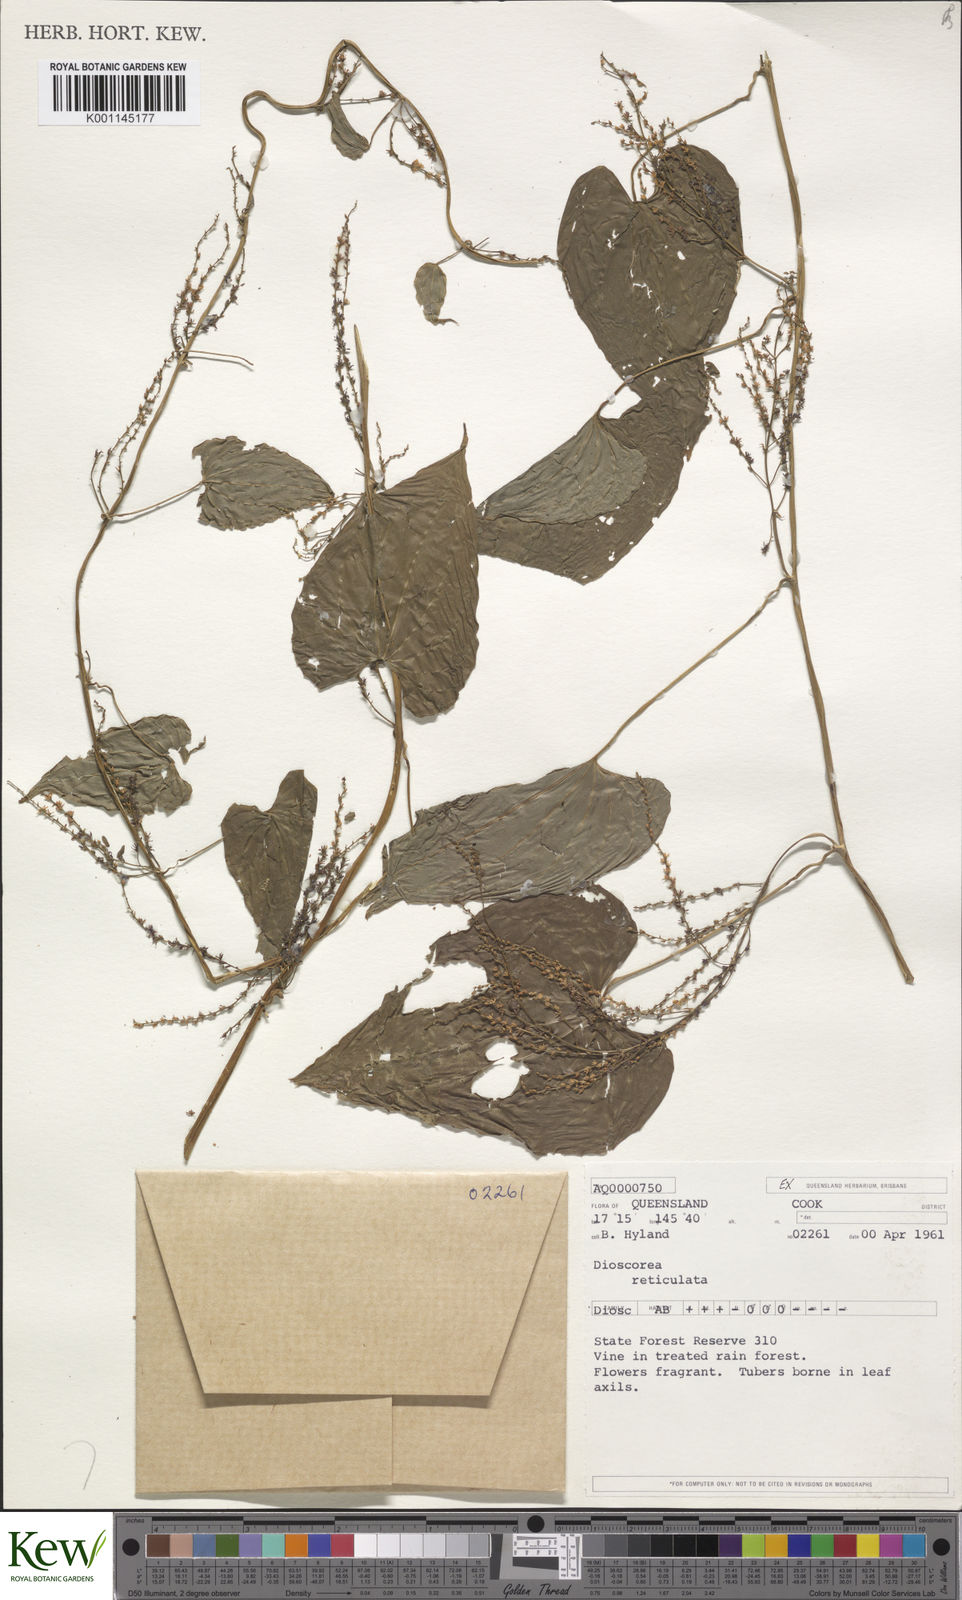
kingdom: Plantae
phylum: Tracheophyta
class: Liliopsida
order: Dioscoreales
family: Dioscoreaceae
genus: Dioscorea
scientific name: Dioscorea reticulata
